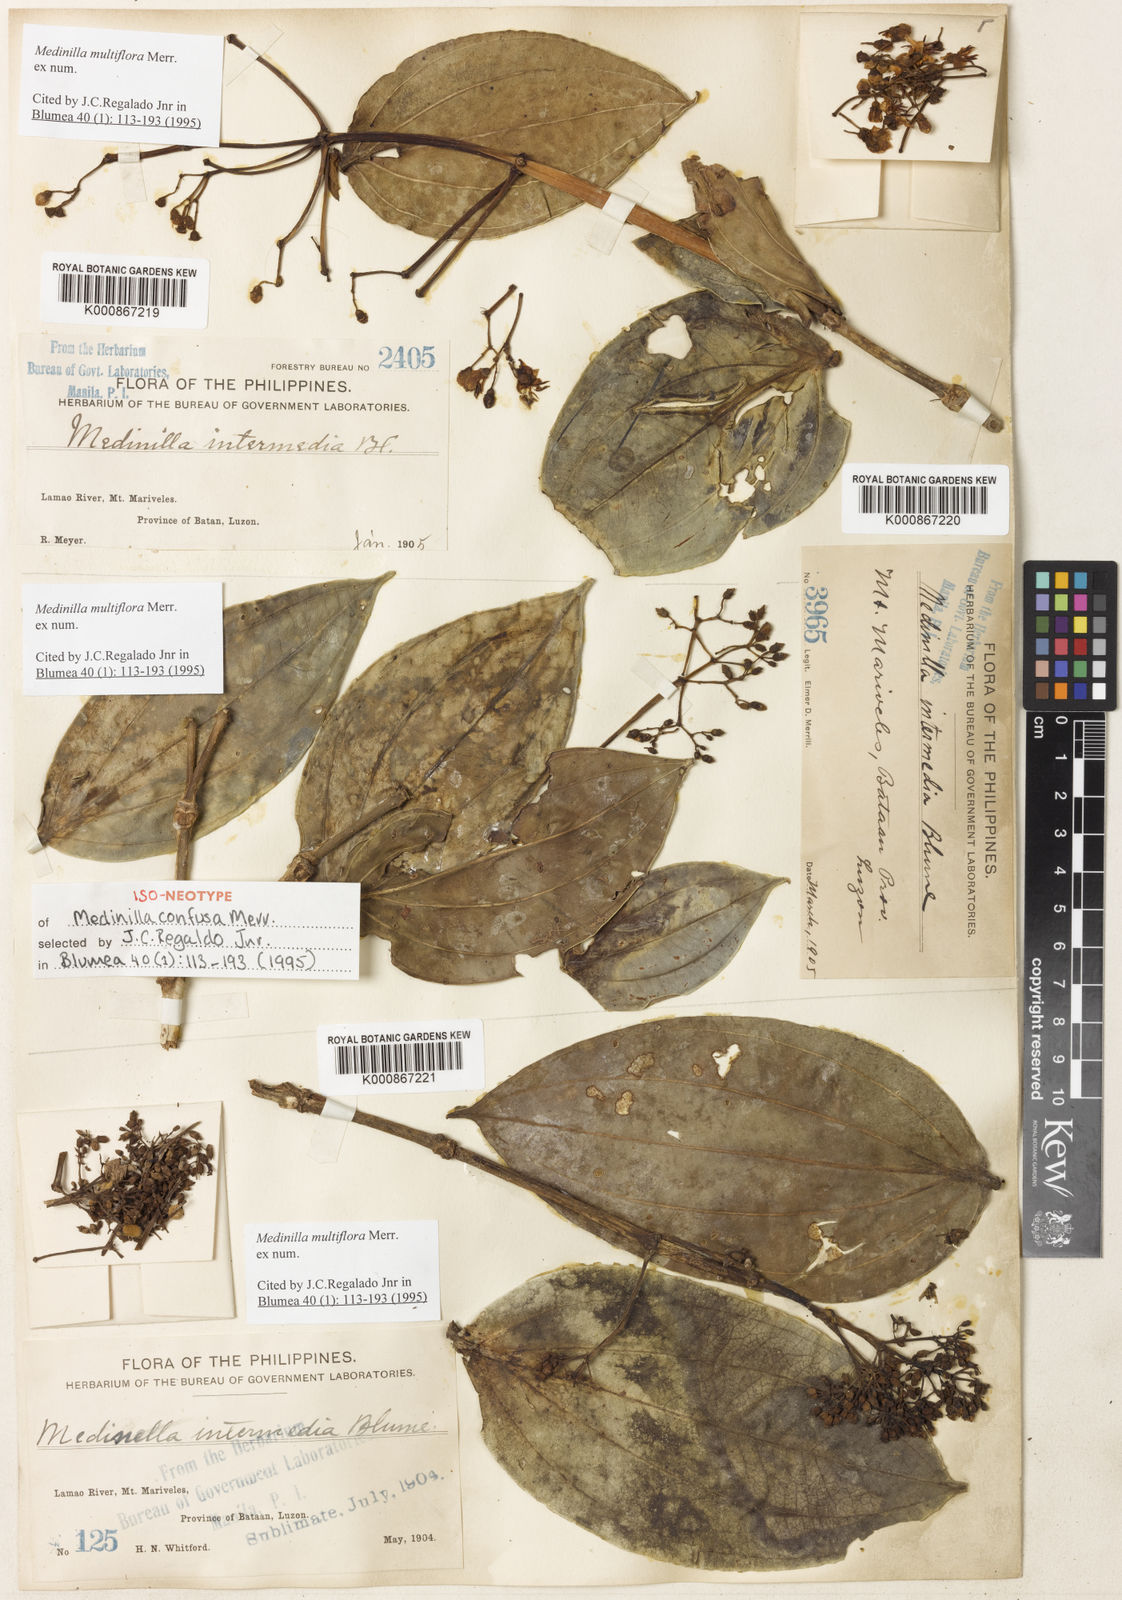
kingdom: Plantae
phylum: Tracheophyta
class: Magnoliopsida
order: Myrtales
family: Melastomataceae
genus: Medinilla
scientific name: Medinilla multiflora
